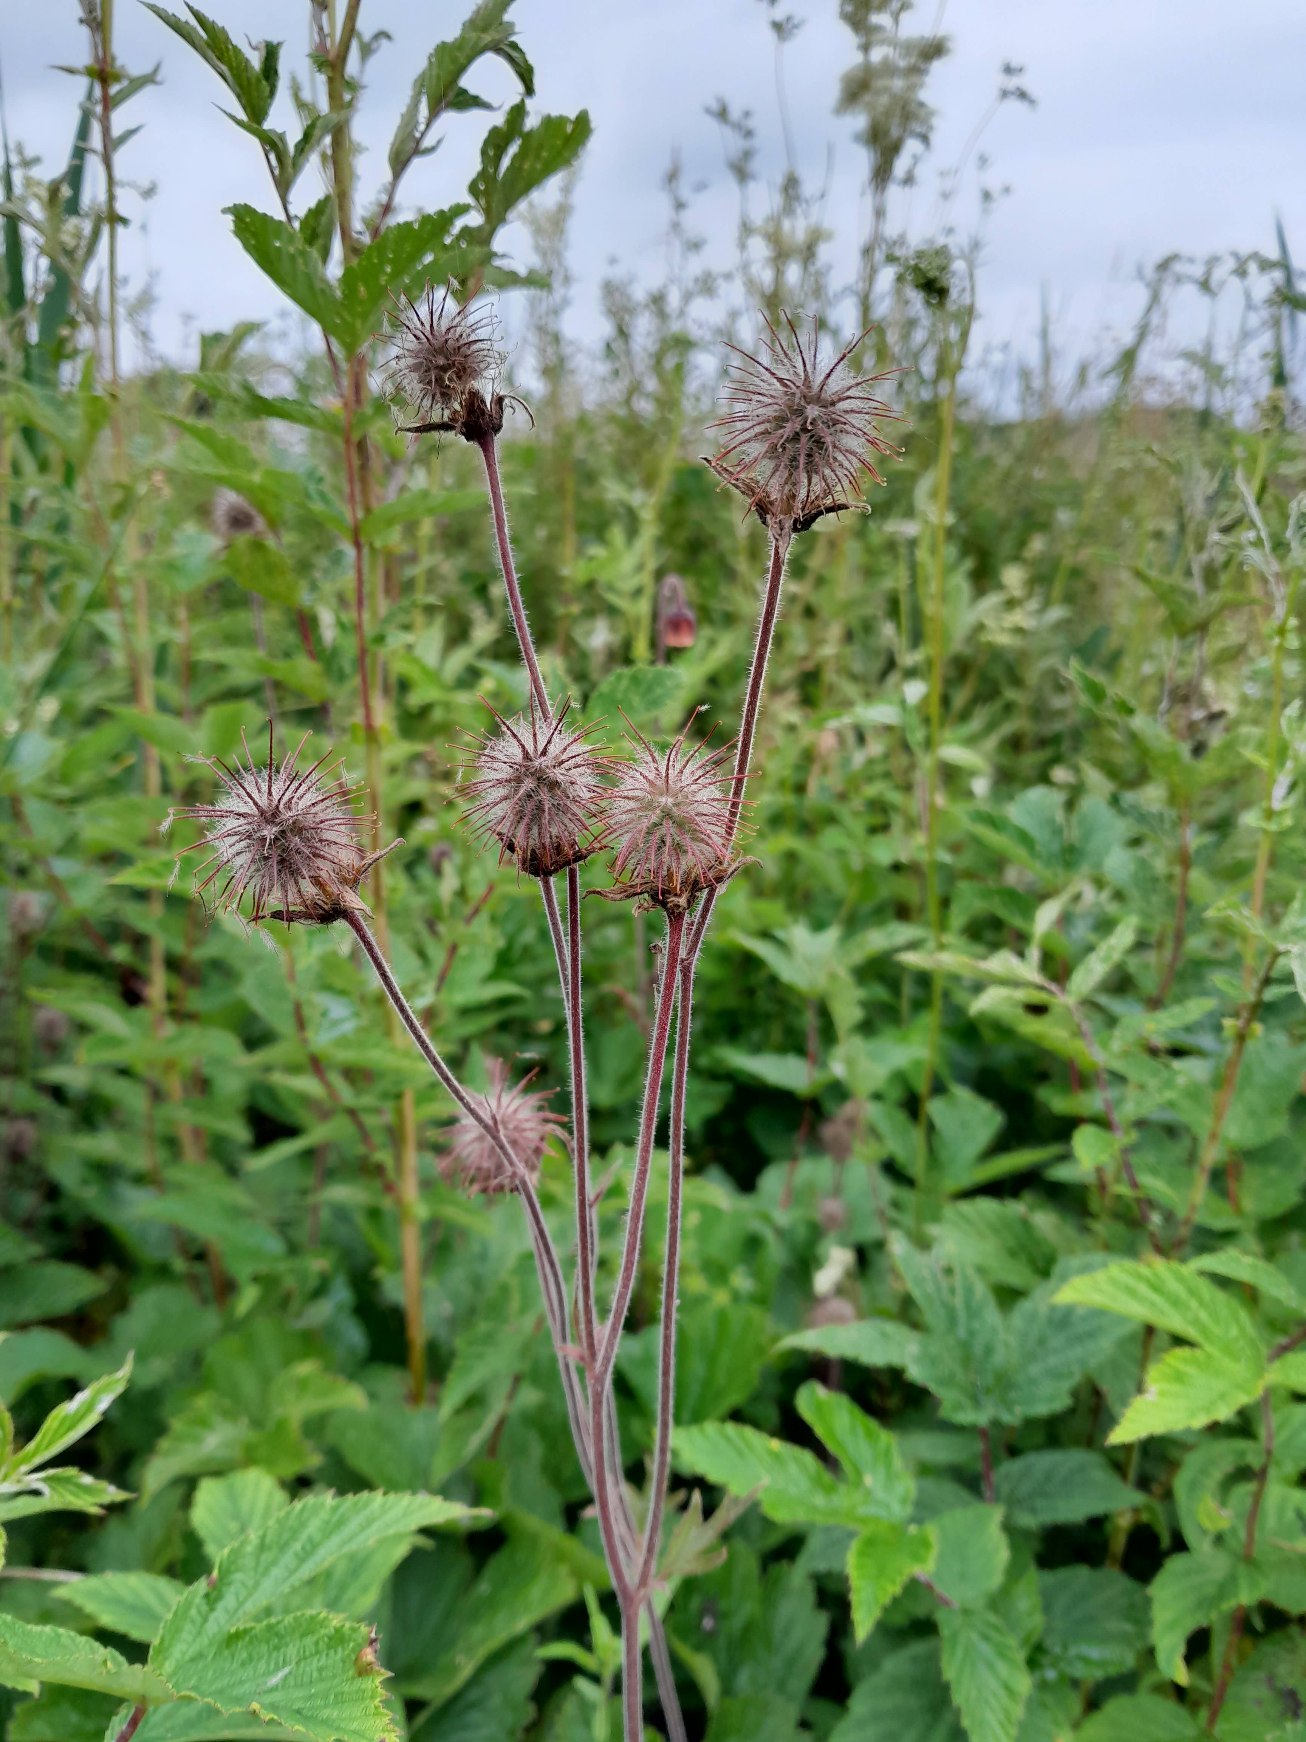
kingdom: Plantae
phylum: Tracheophyta
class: Magnoliopsida
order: Rosales
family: Rosaceae
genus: Geum
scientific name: Geum rivale
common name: Eng-nellikerod
